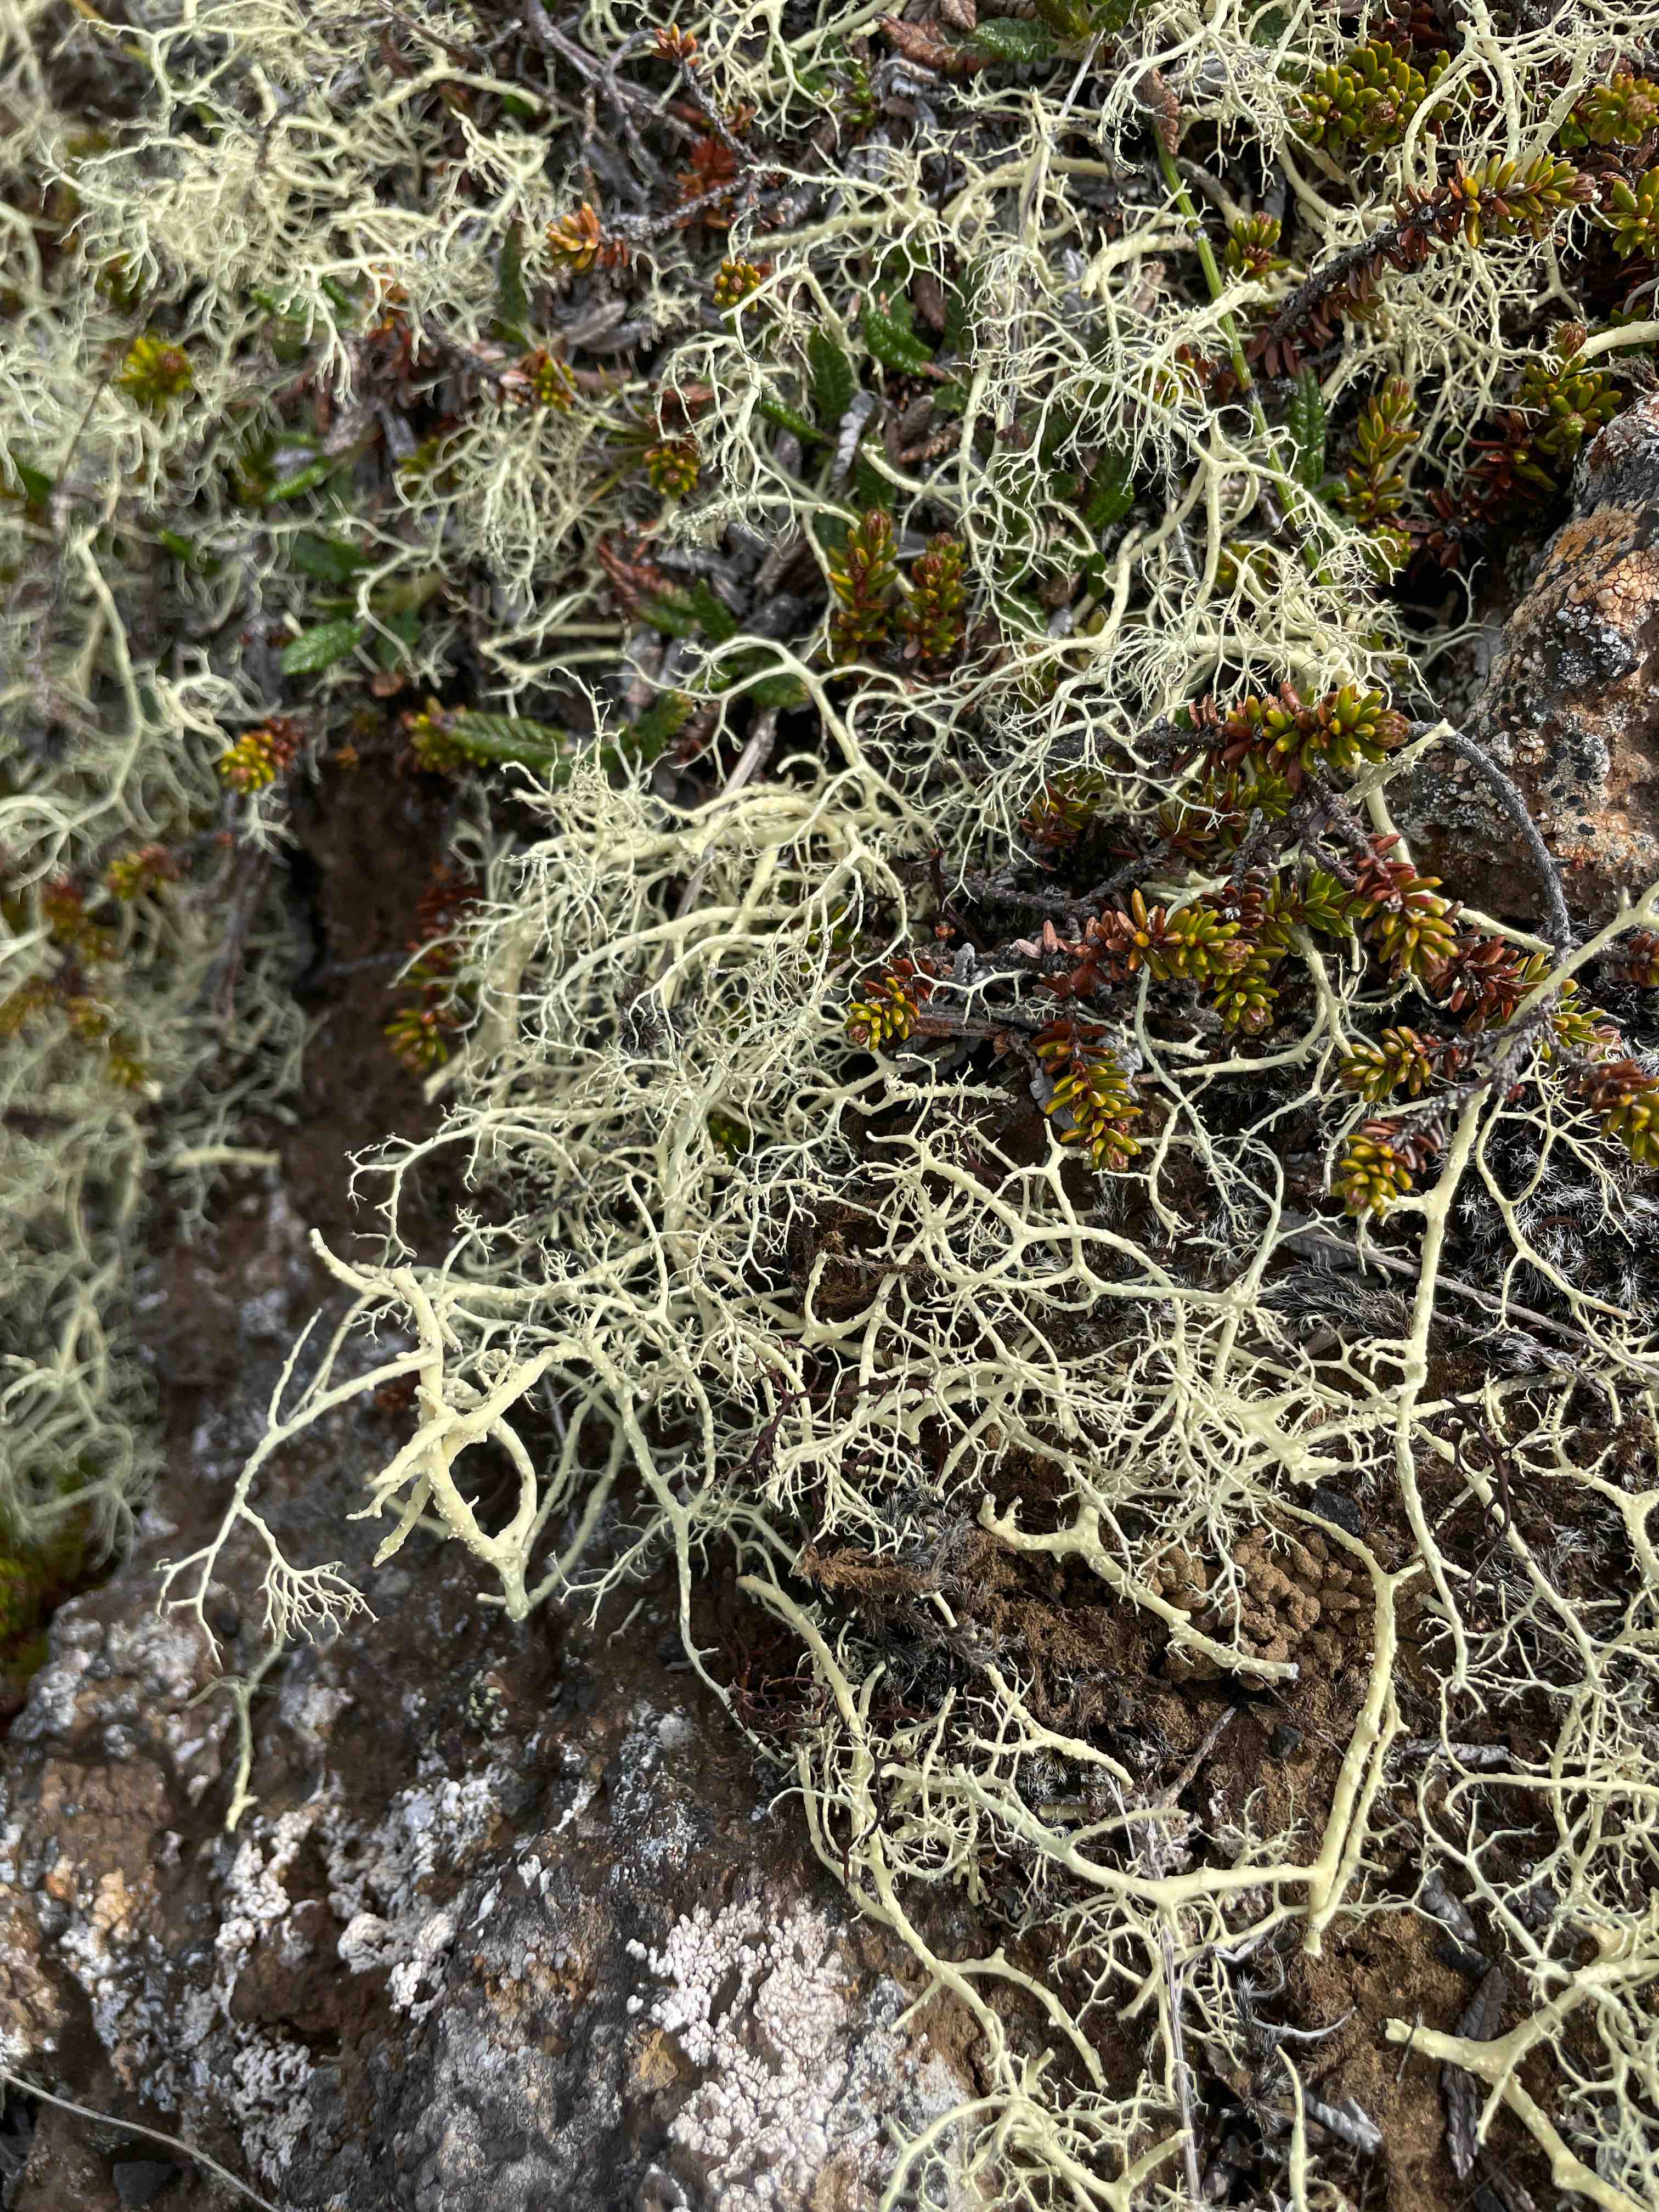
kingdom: Fungi
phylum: Ascomycota
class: Lecanoromycetes
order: Lecanorales
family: Parmeliaceae
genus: Alectoria
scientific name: Alectoria ochroleuca
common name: Alpine sulphur-tresses
